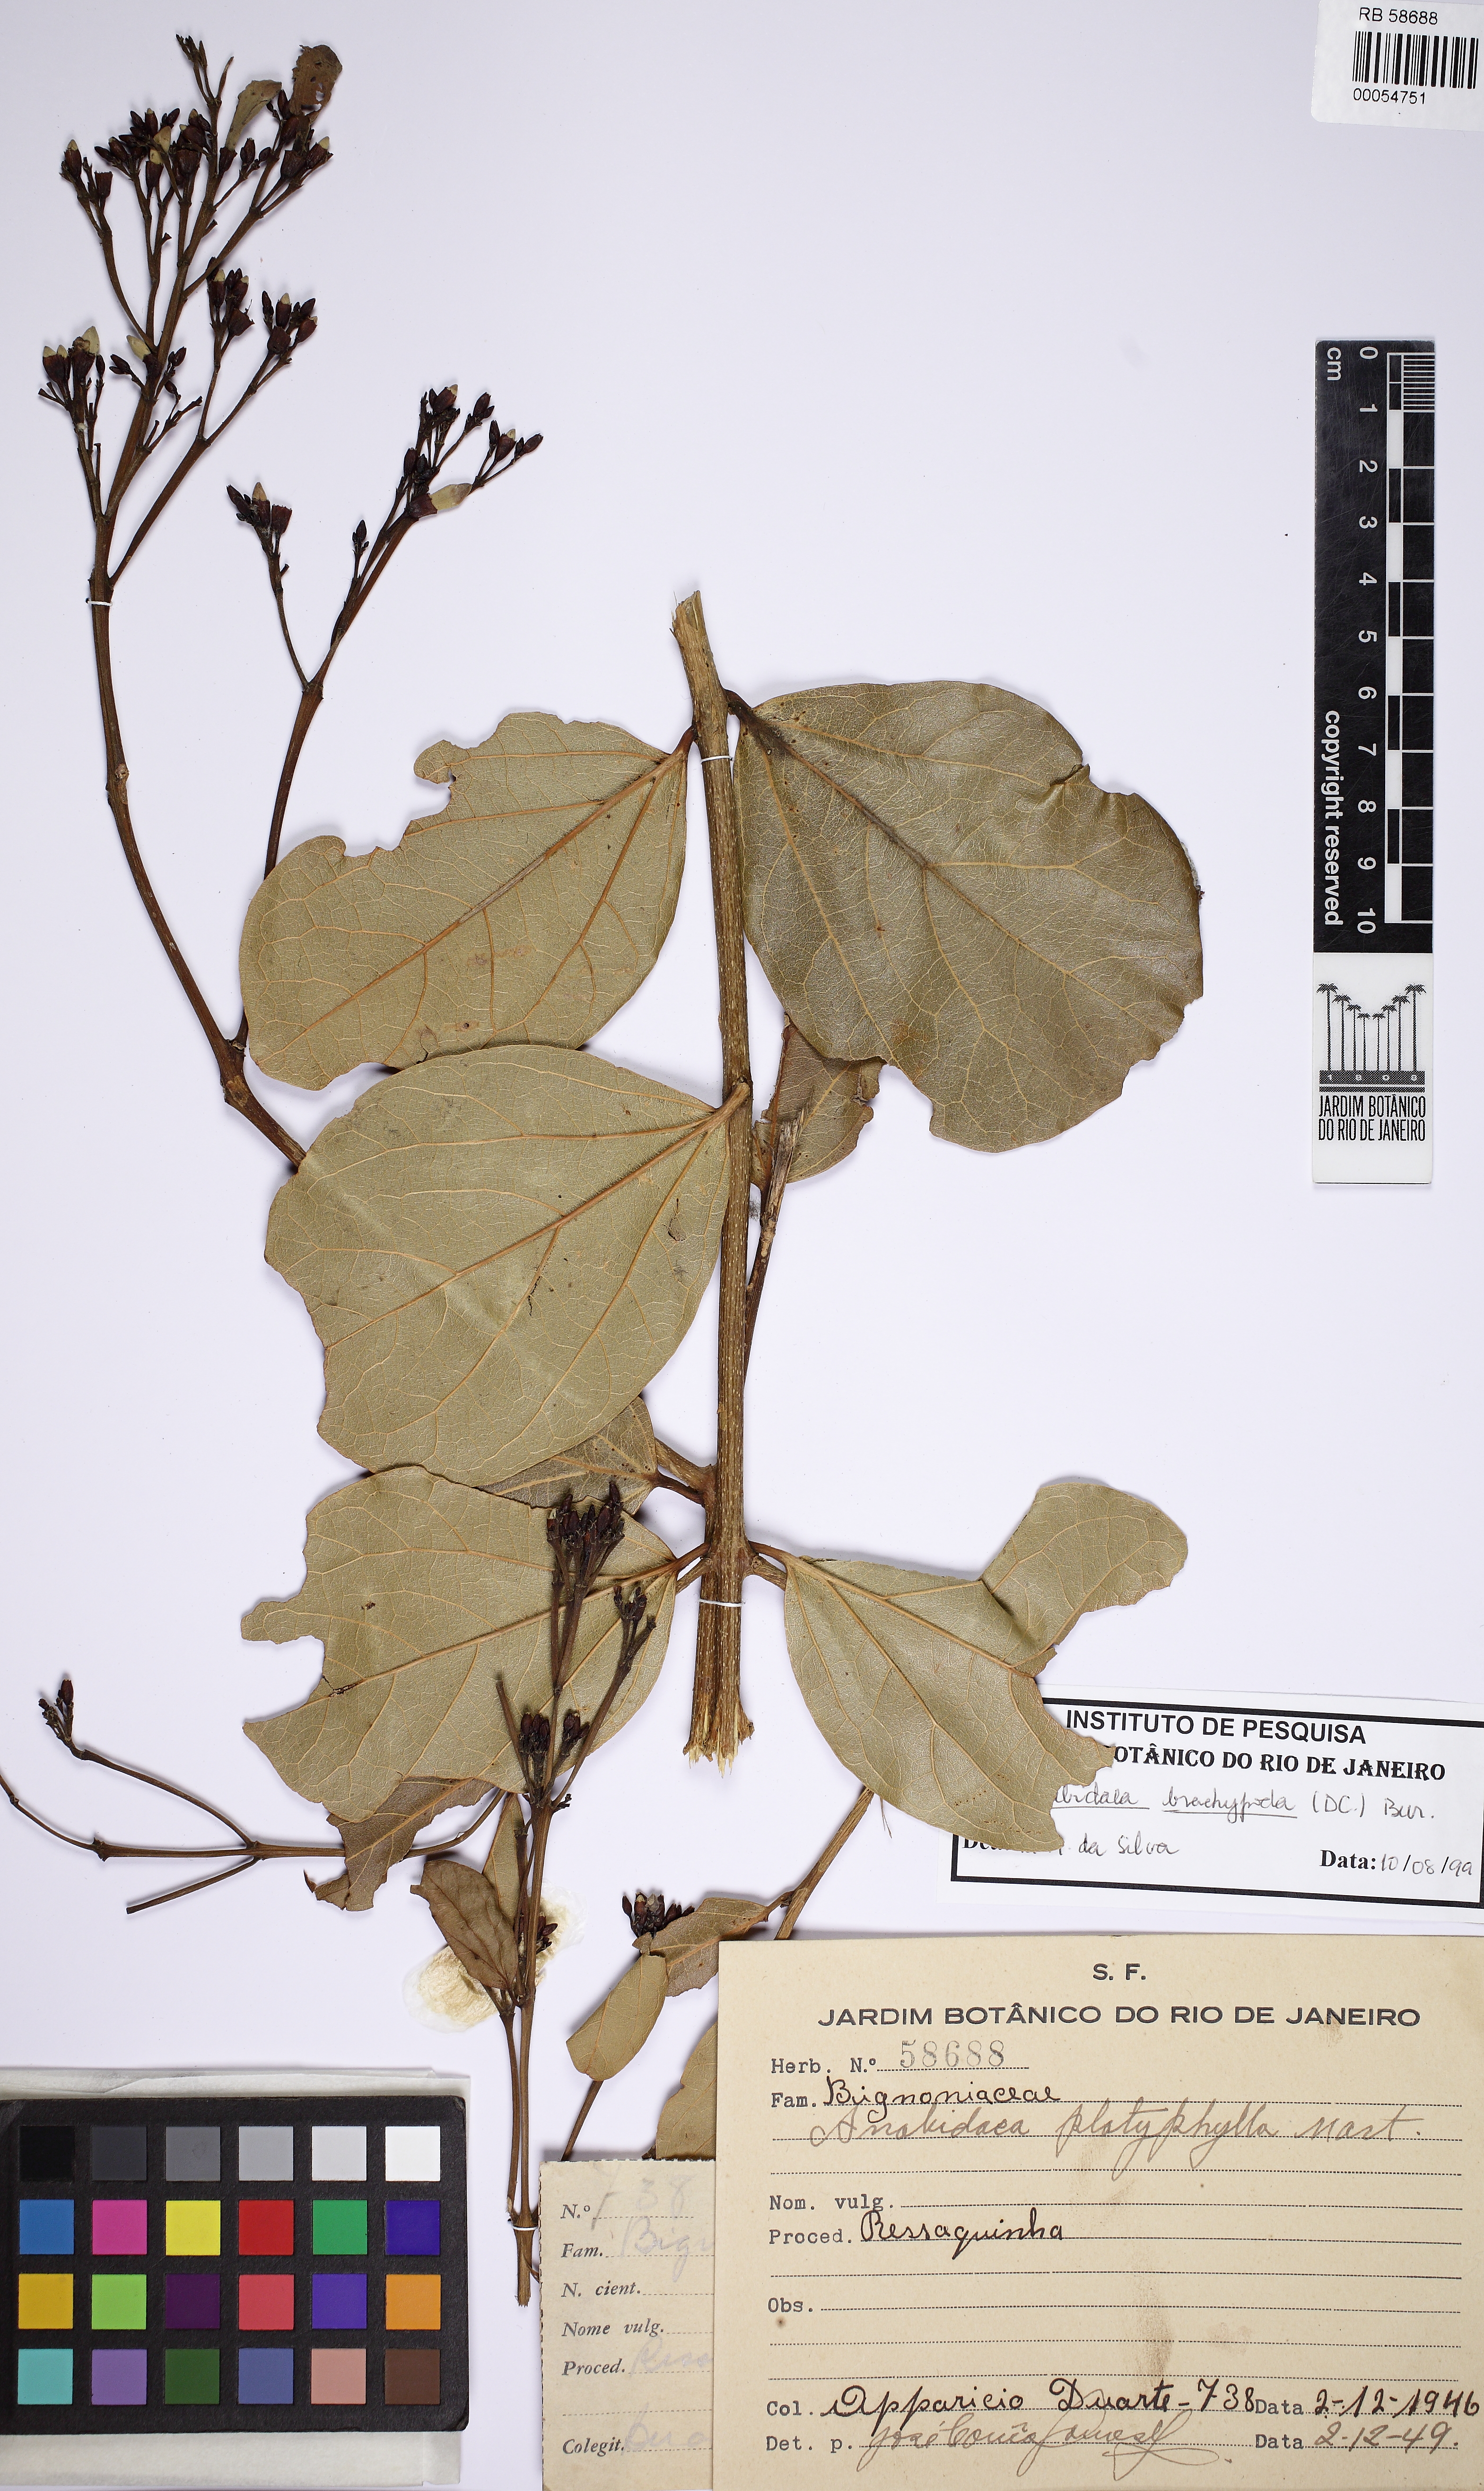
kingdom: Plantae
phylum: Tracheophyta
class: Magnoliopsida
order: Lamiales
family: Bignoniaceae
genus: Fridericia
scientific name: Fridericia platyphylla
